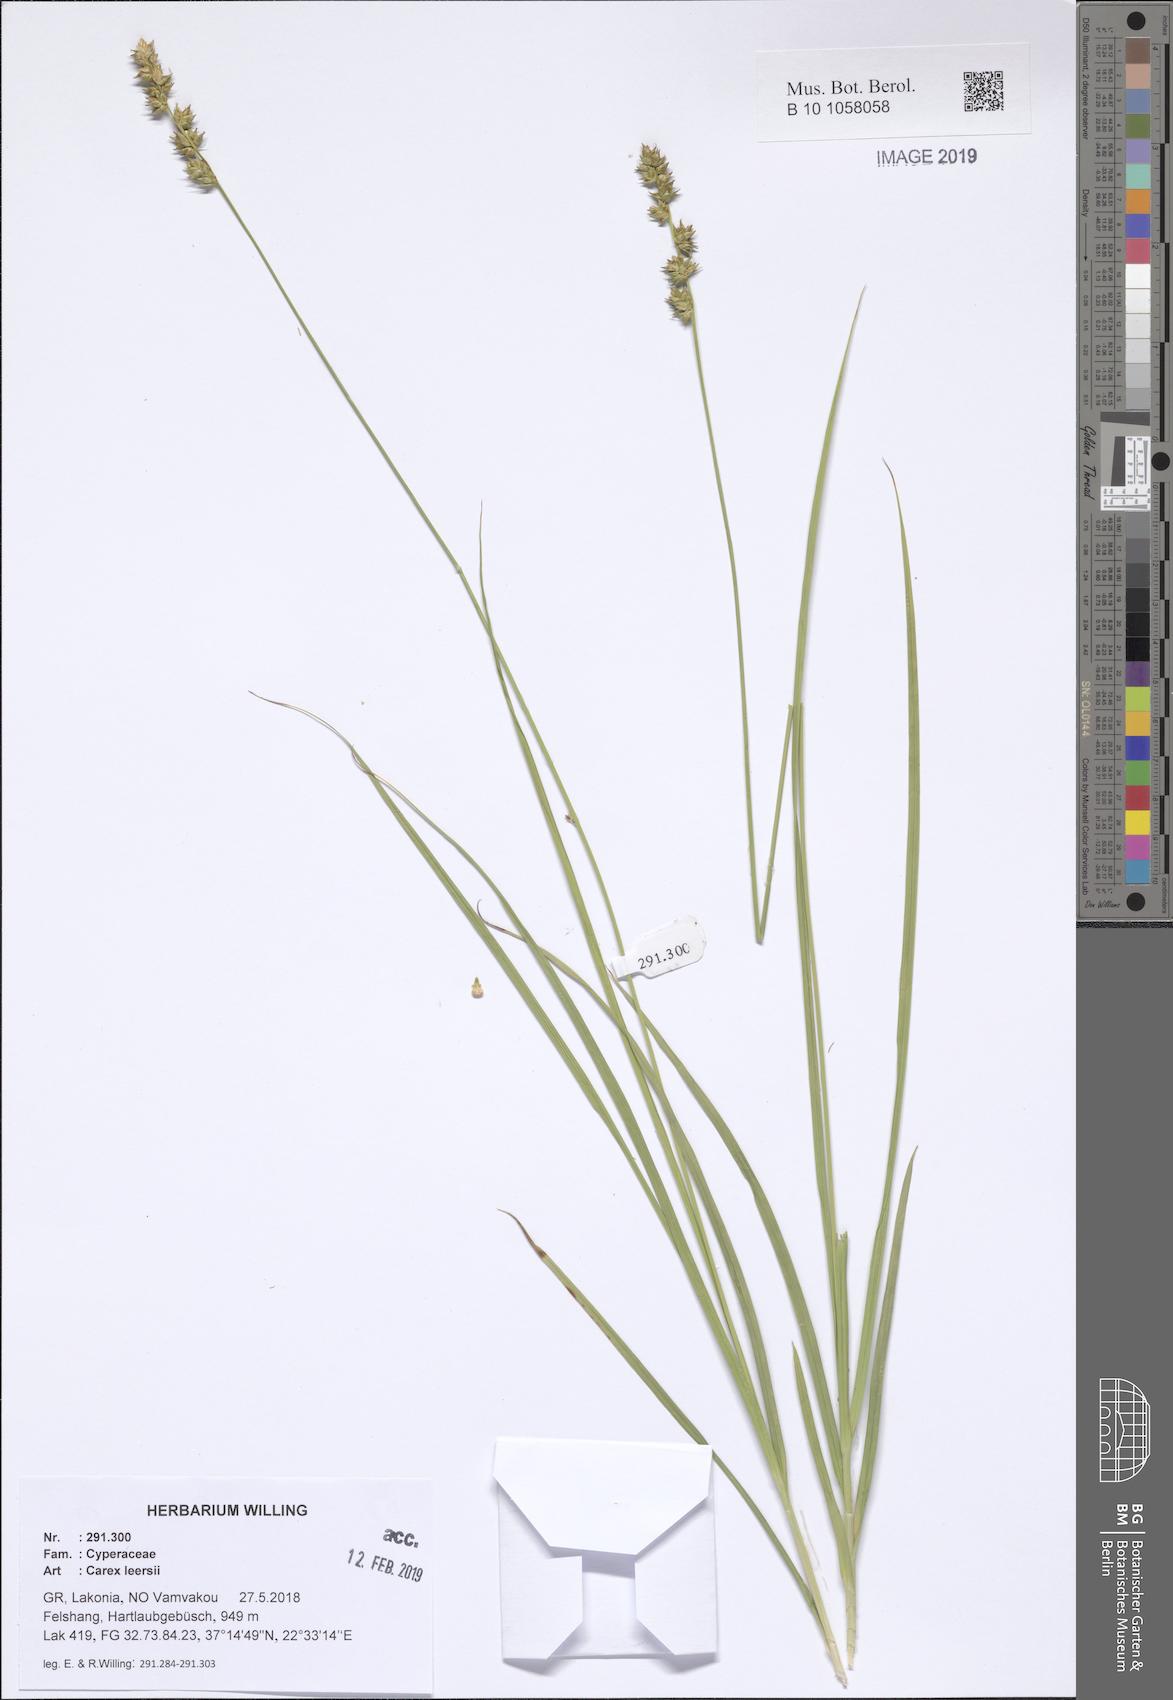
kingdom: Plantae
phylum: Tracheophyta
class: Liliopsida
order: Poales
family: Cyperaceae
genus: Carex
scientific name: Carex leersii
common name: Leers' sedge
